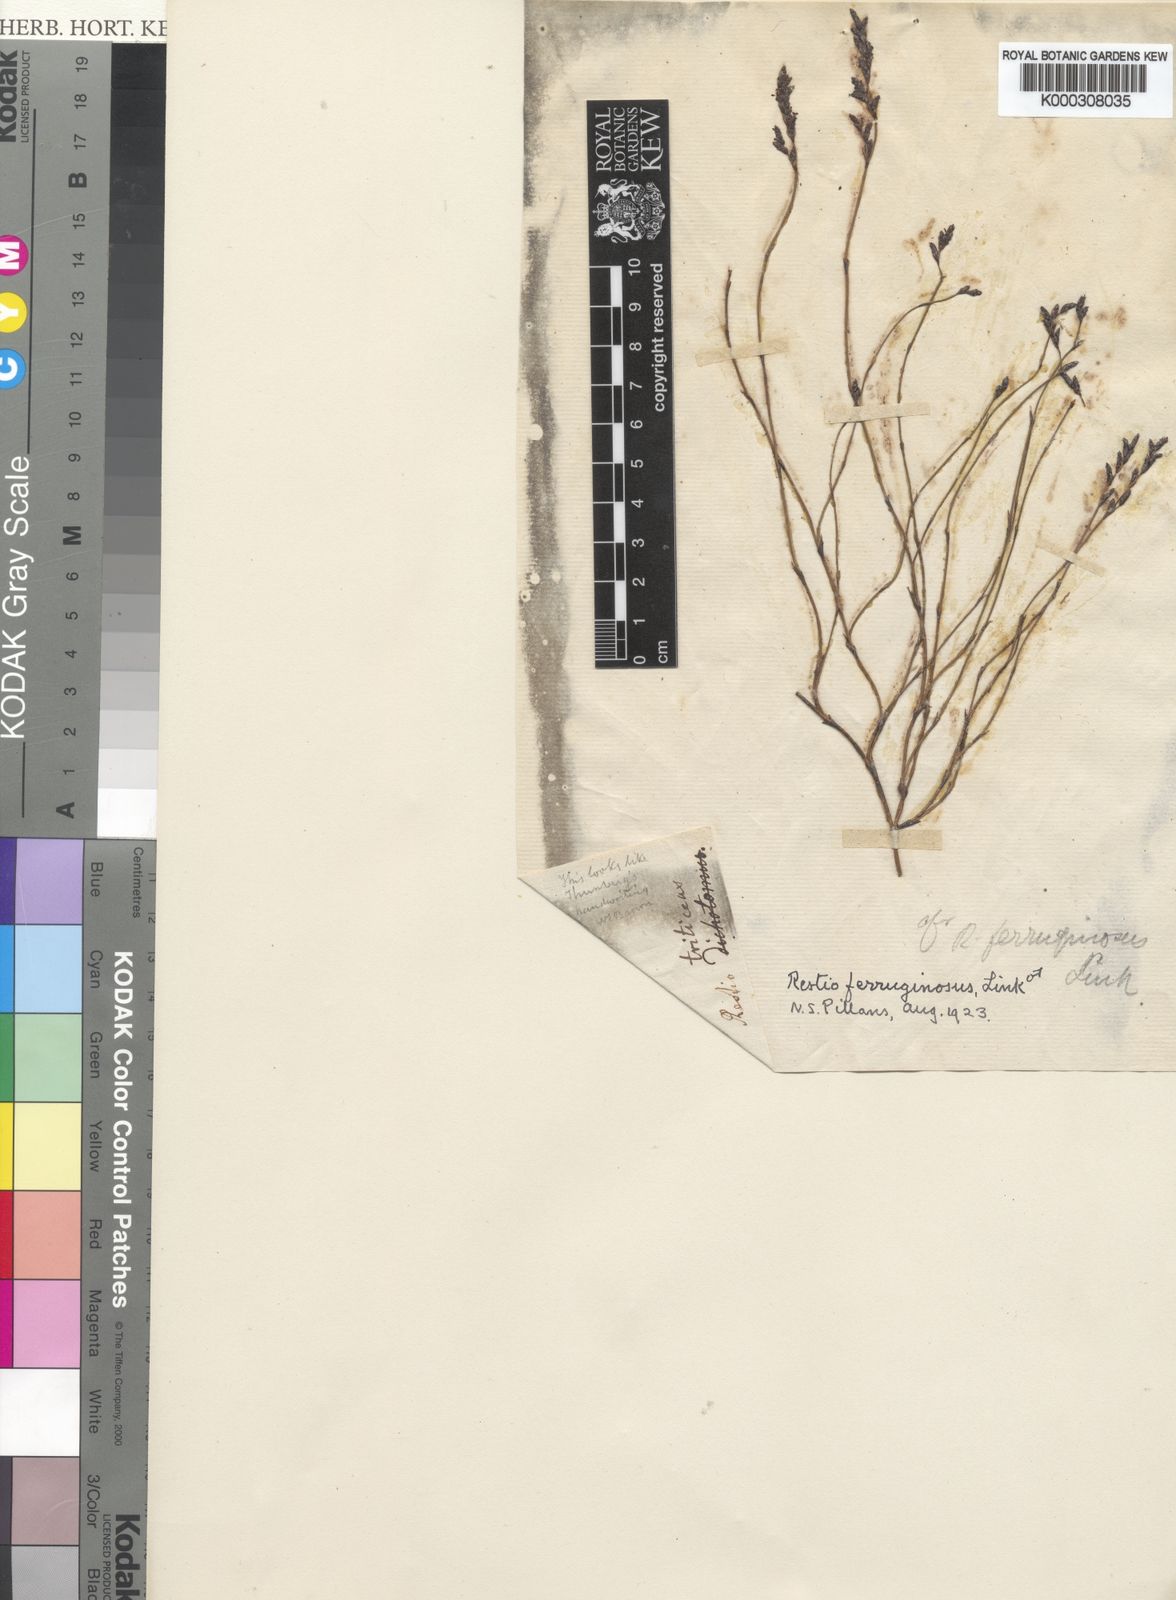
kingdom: Plantae
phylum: Tracheophyta
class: Liliopsida
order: Poales
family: Restionaceae
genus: Restio
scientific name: Restio gaudichaudianus
